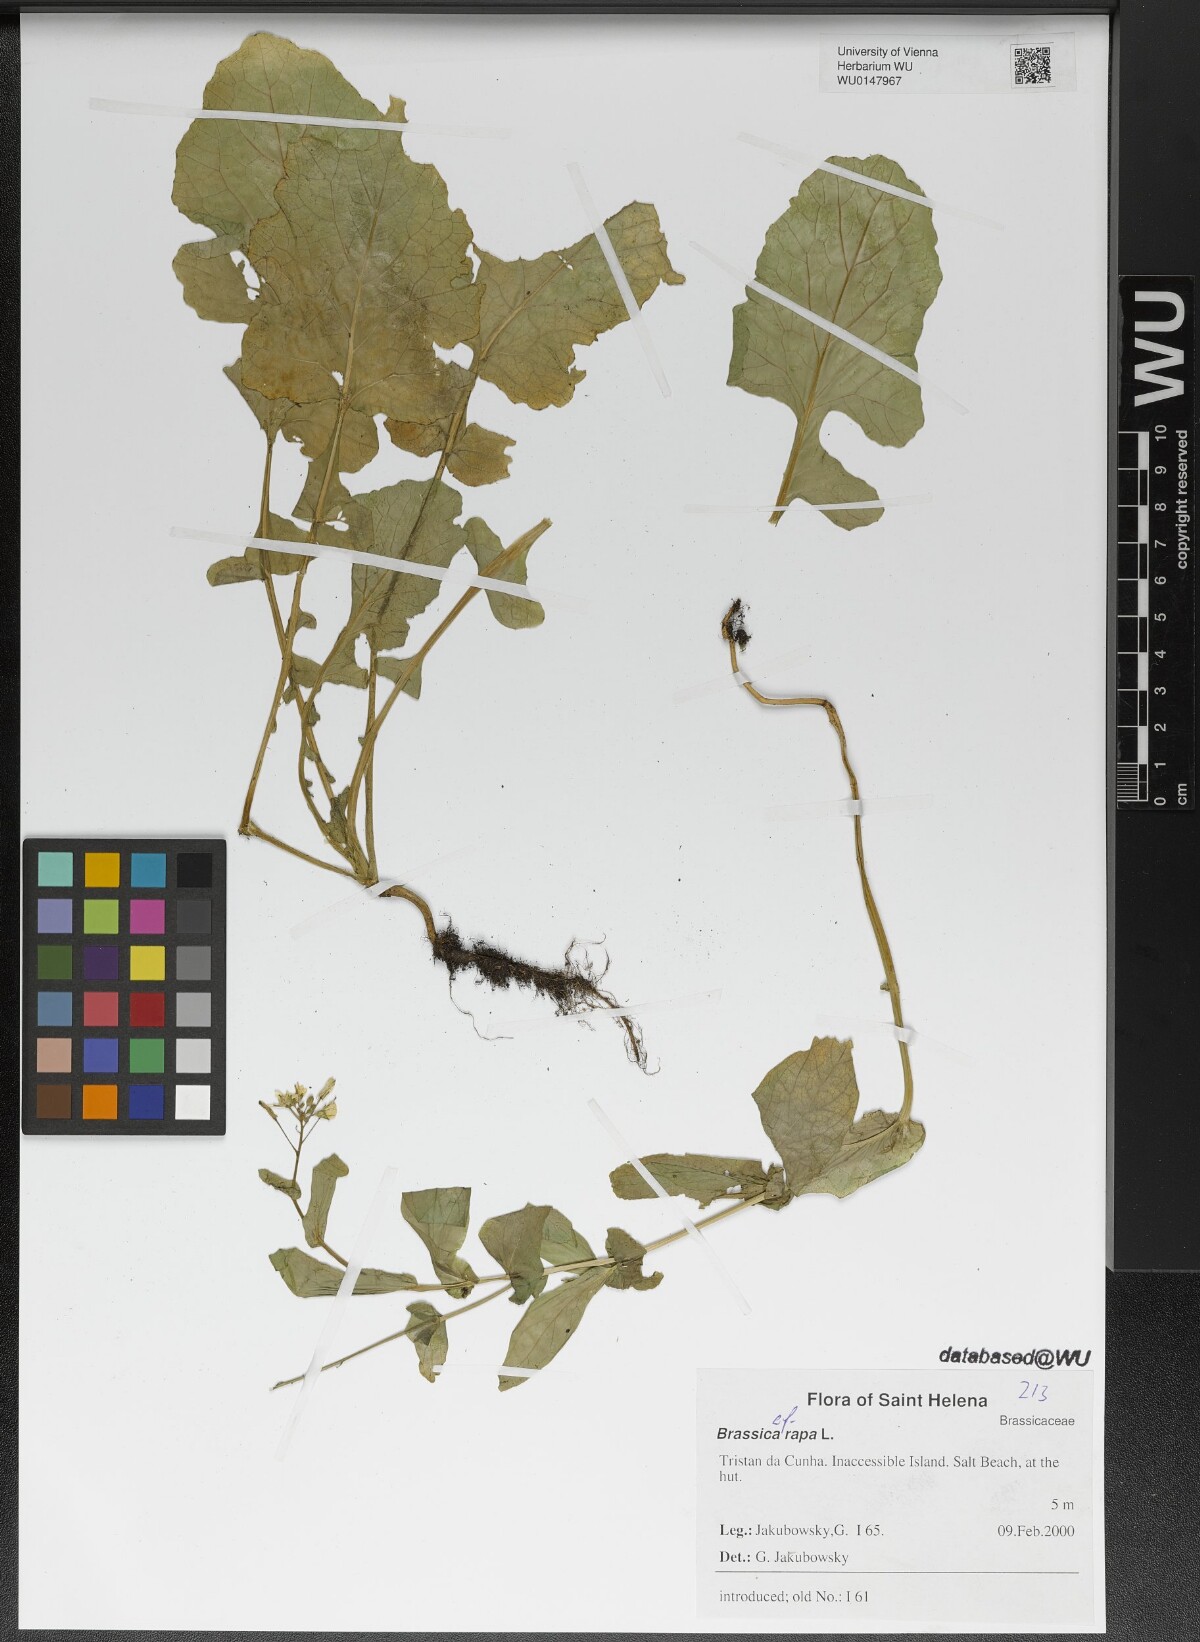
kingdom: Plantae
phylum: Tracheophyta
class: Magnoliopsida
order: Brassicales
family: Brassicaceae
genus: Brassica
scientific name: Brassica rapa
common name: Field mustard
